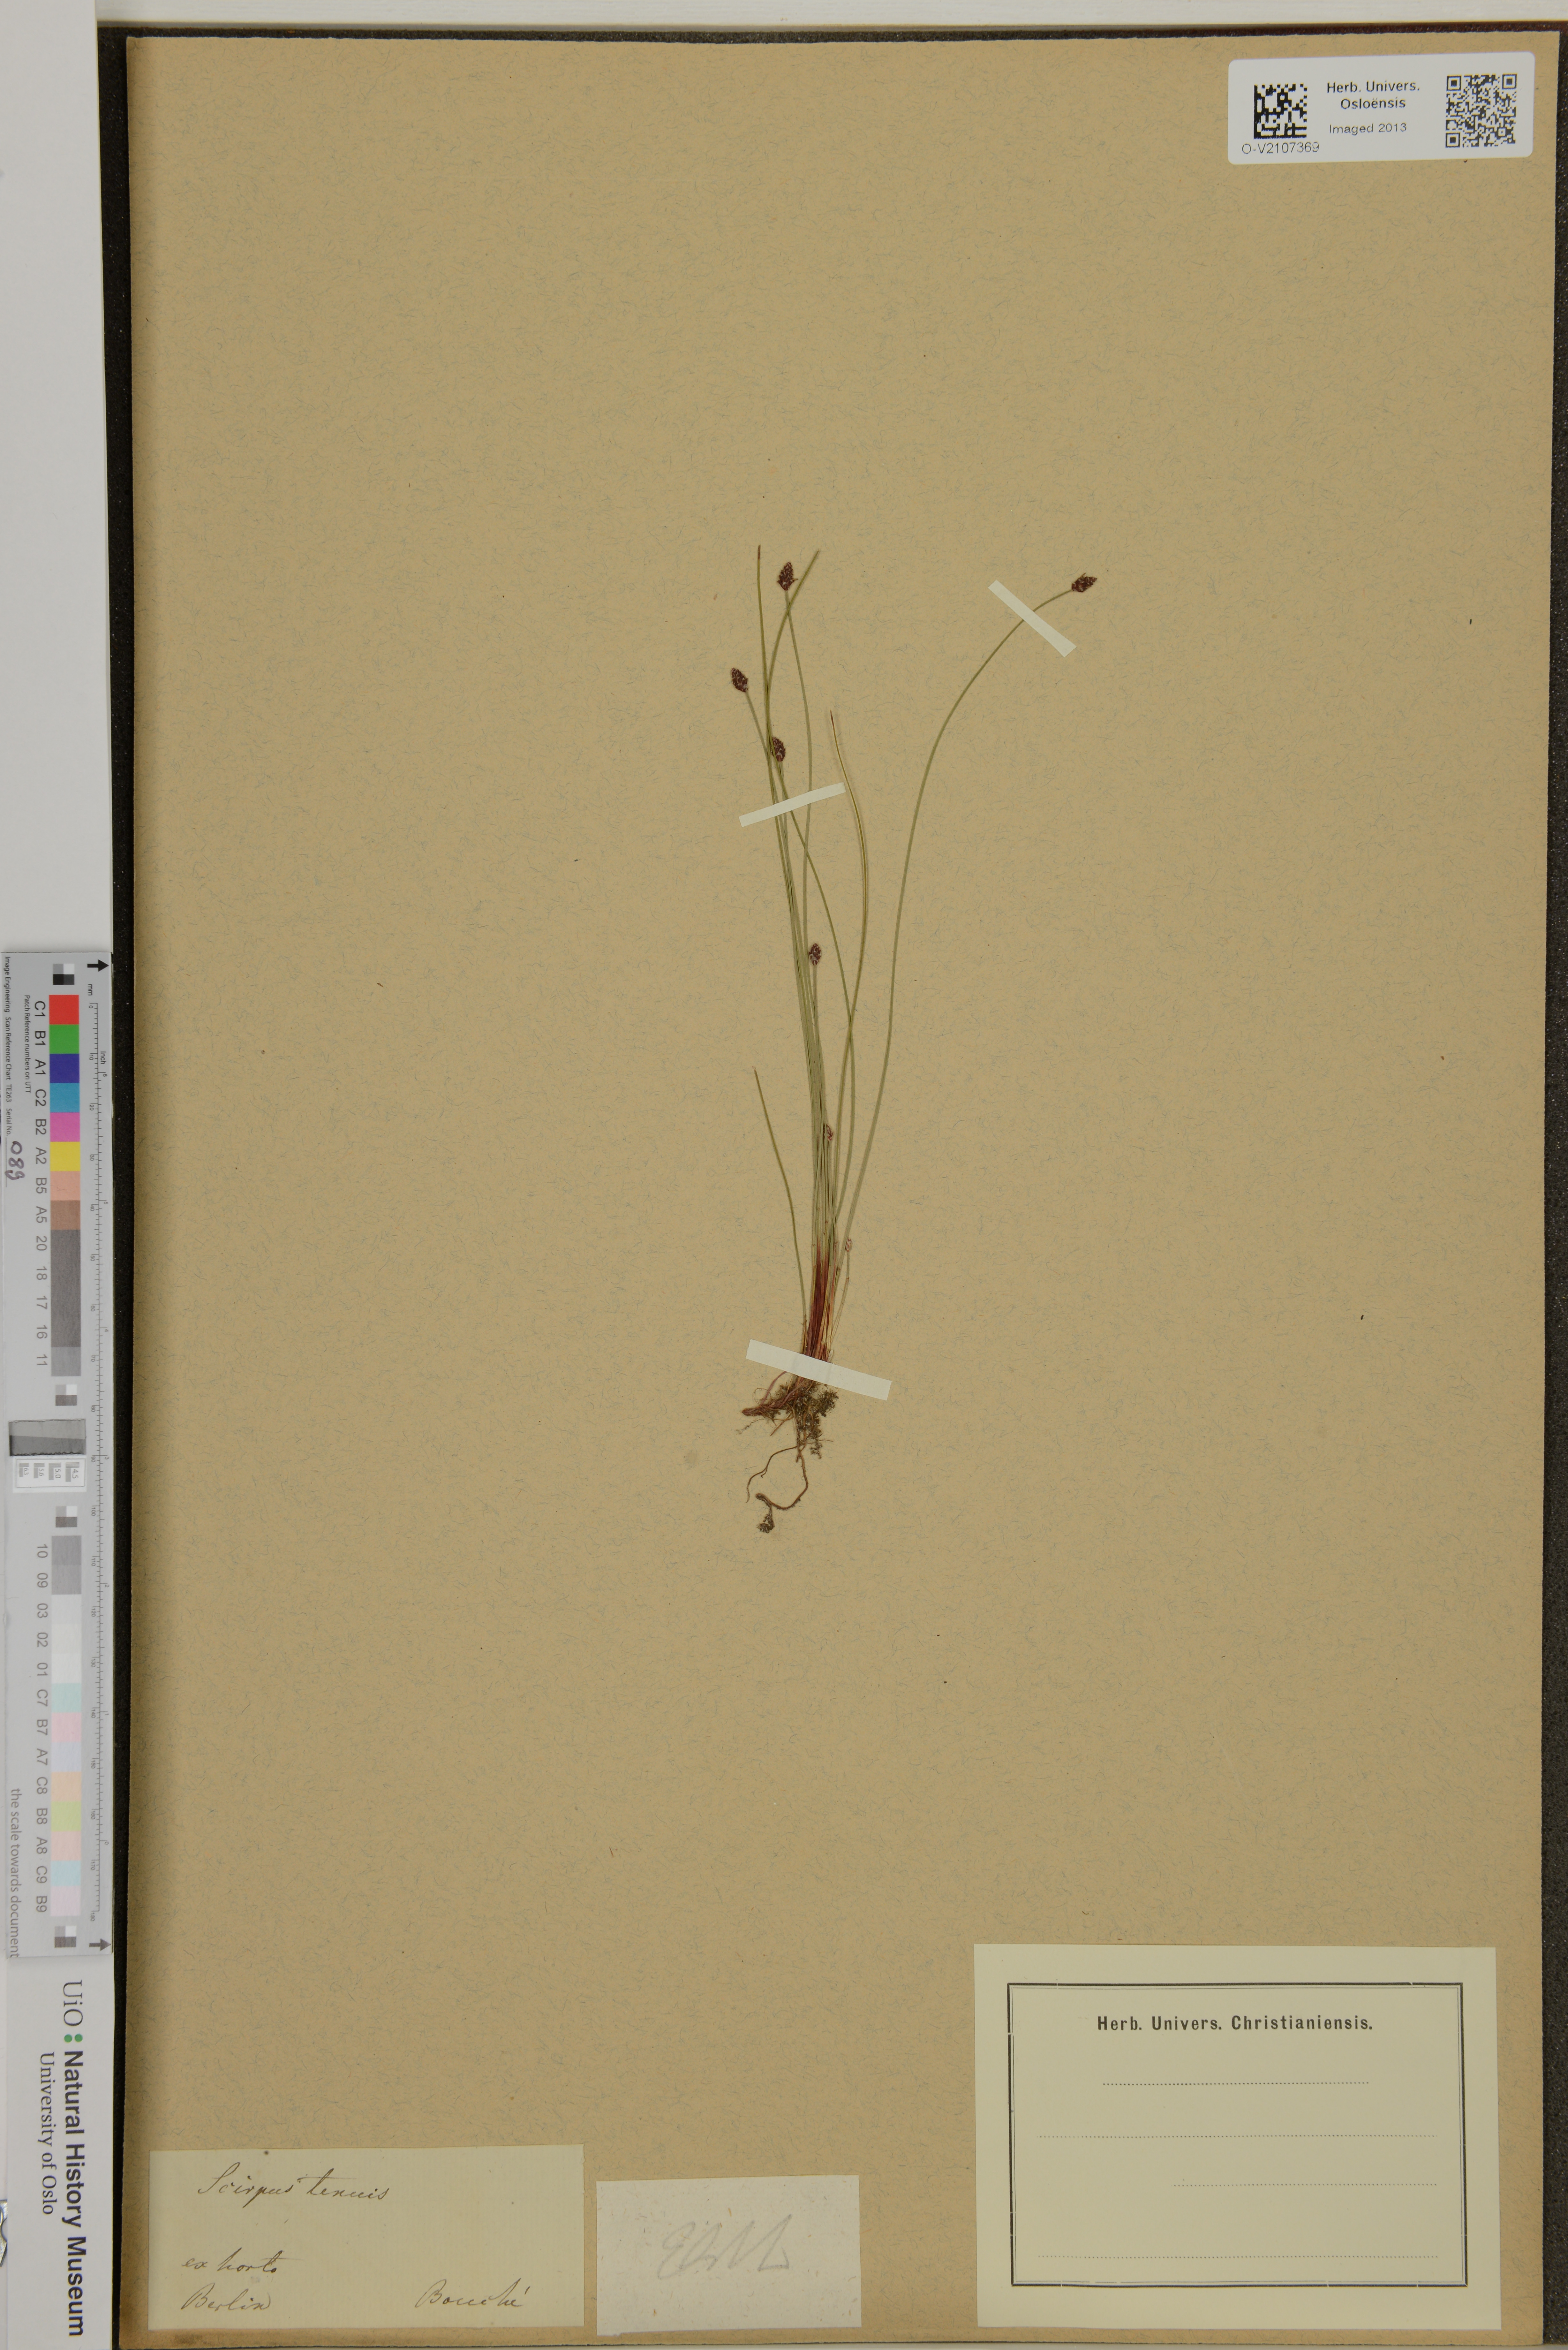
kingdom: Plantae
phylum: Tracheophyta
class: Liliopsida
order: Poales
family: Cyperaceae
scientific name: Cyperaceae
